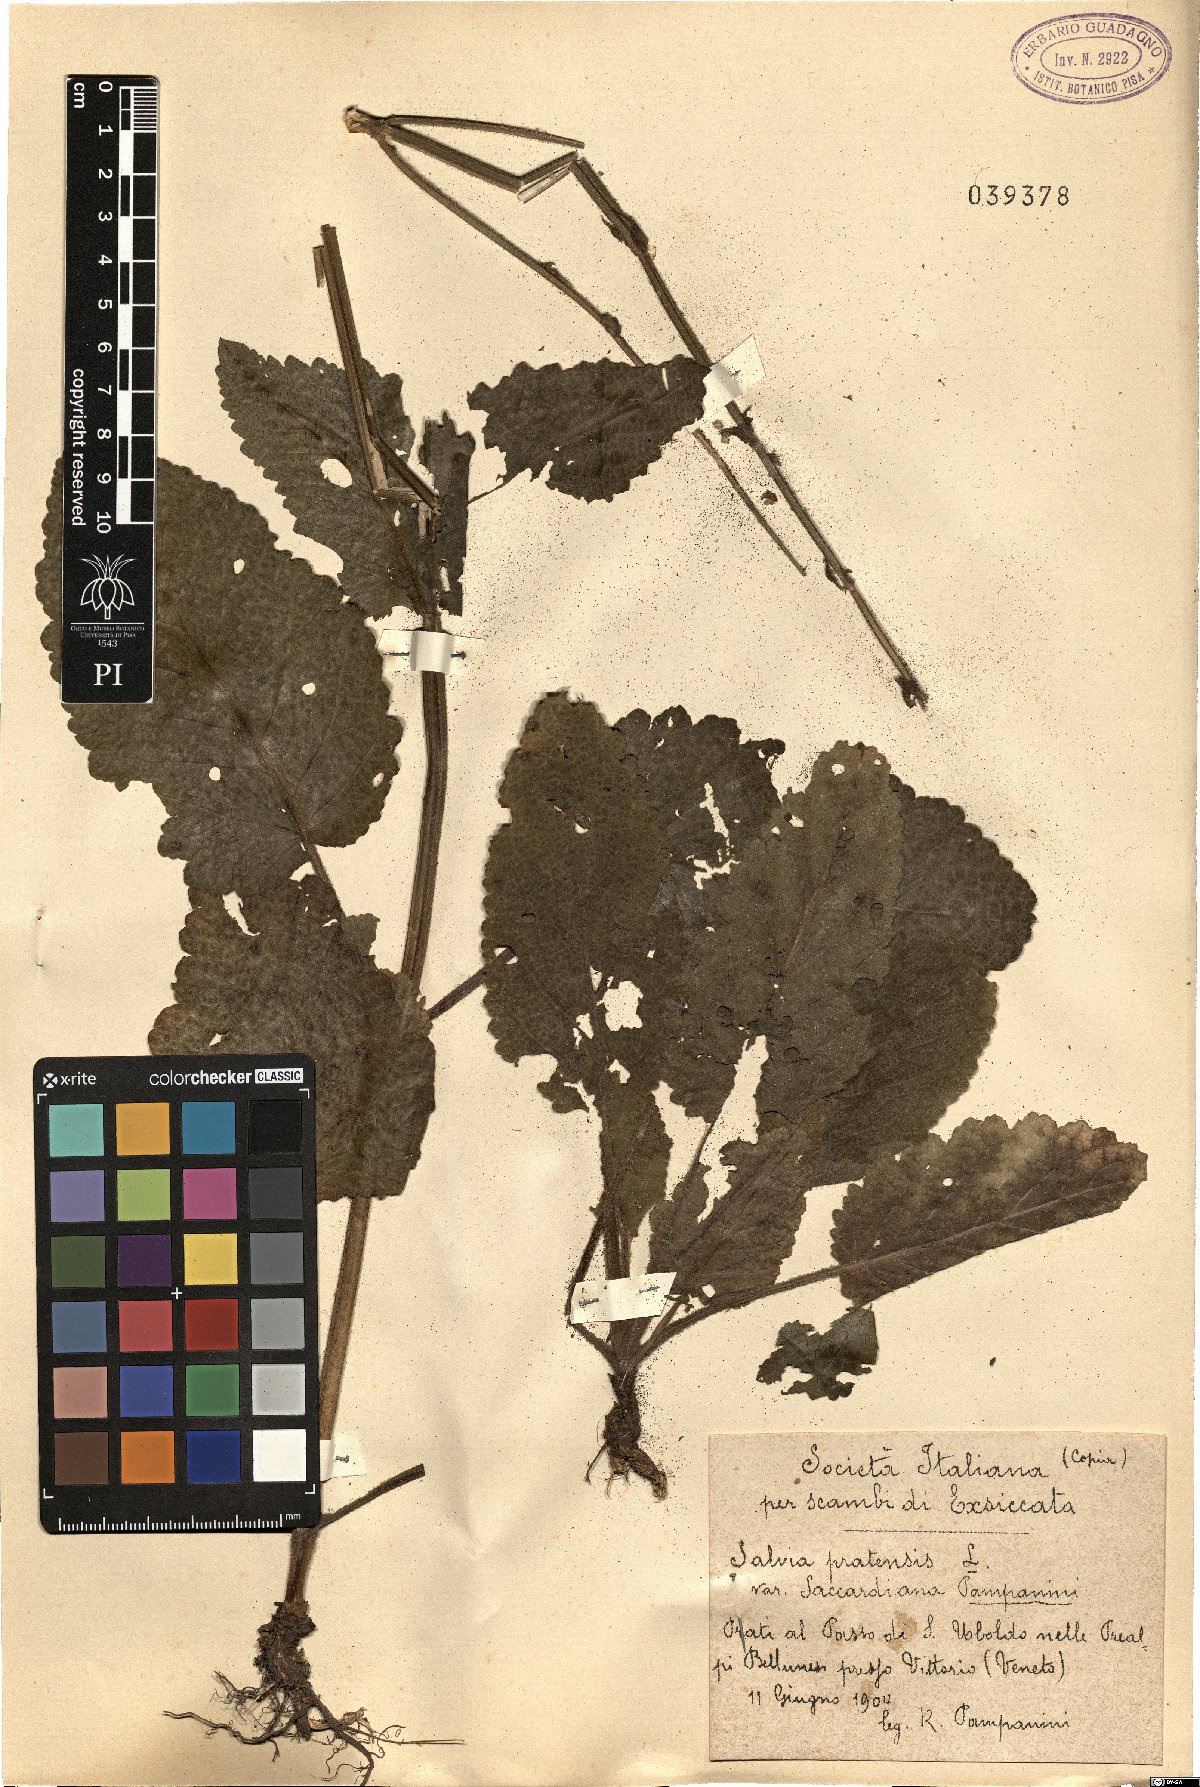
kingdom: Plantae
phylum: Tracheophyta
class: Magnoliopsida
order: Lamiales
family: Lamiaceae
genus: Salvia
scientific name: Salvia saccardiana
